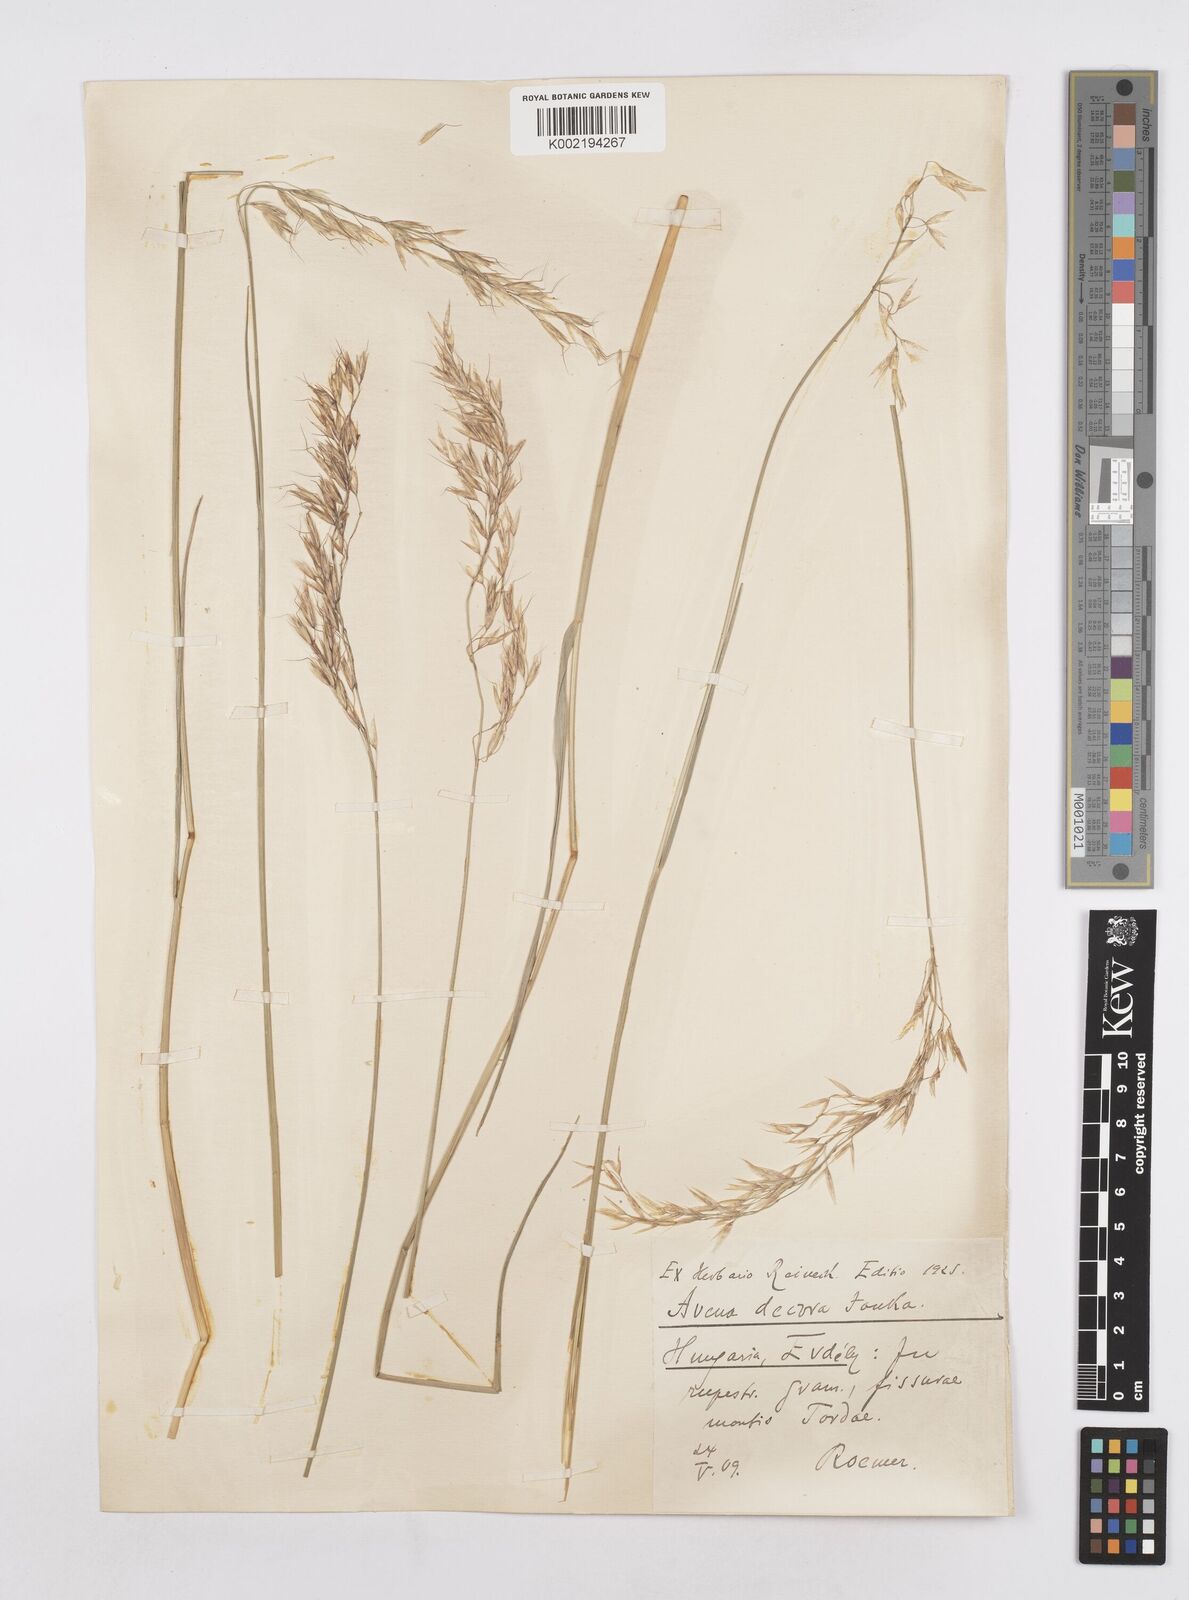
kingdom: Plantae
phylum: Tracheophyta
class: Liliopsida
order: Poales
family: Poaceae
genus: Helictotrichon
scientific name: Helictotrichon decorum
